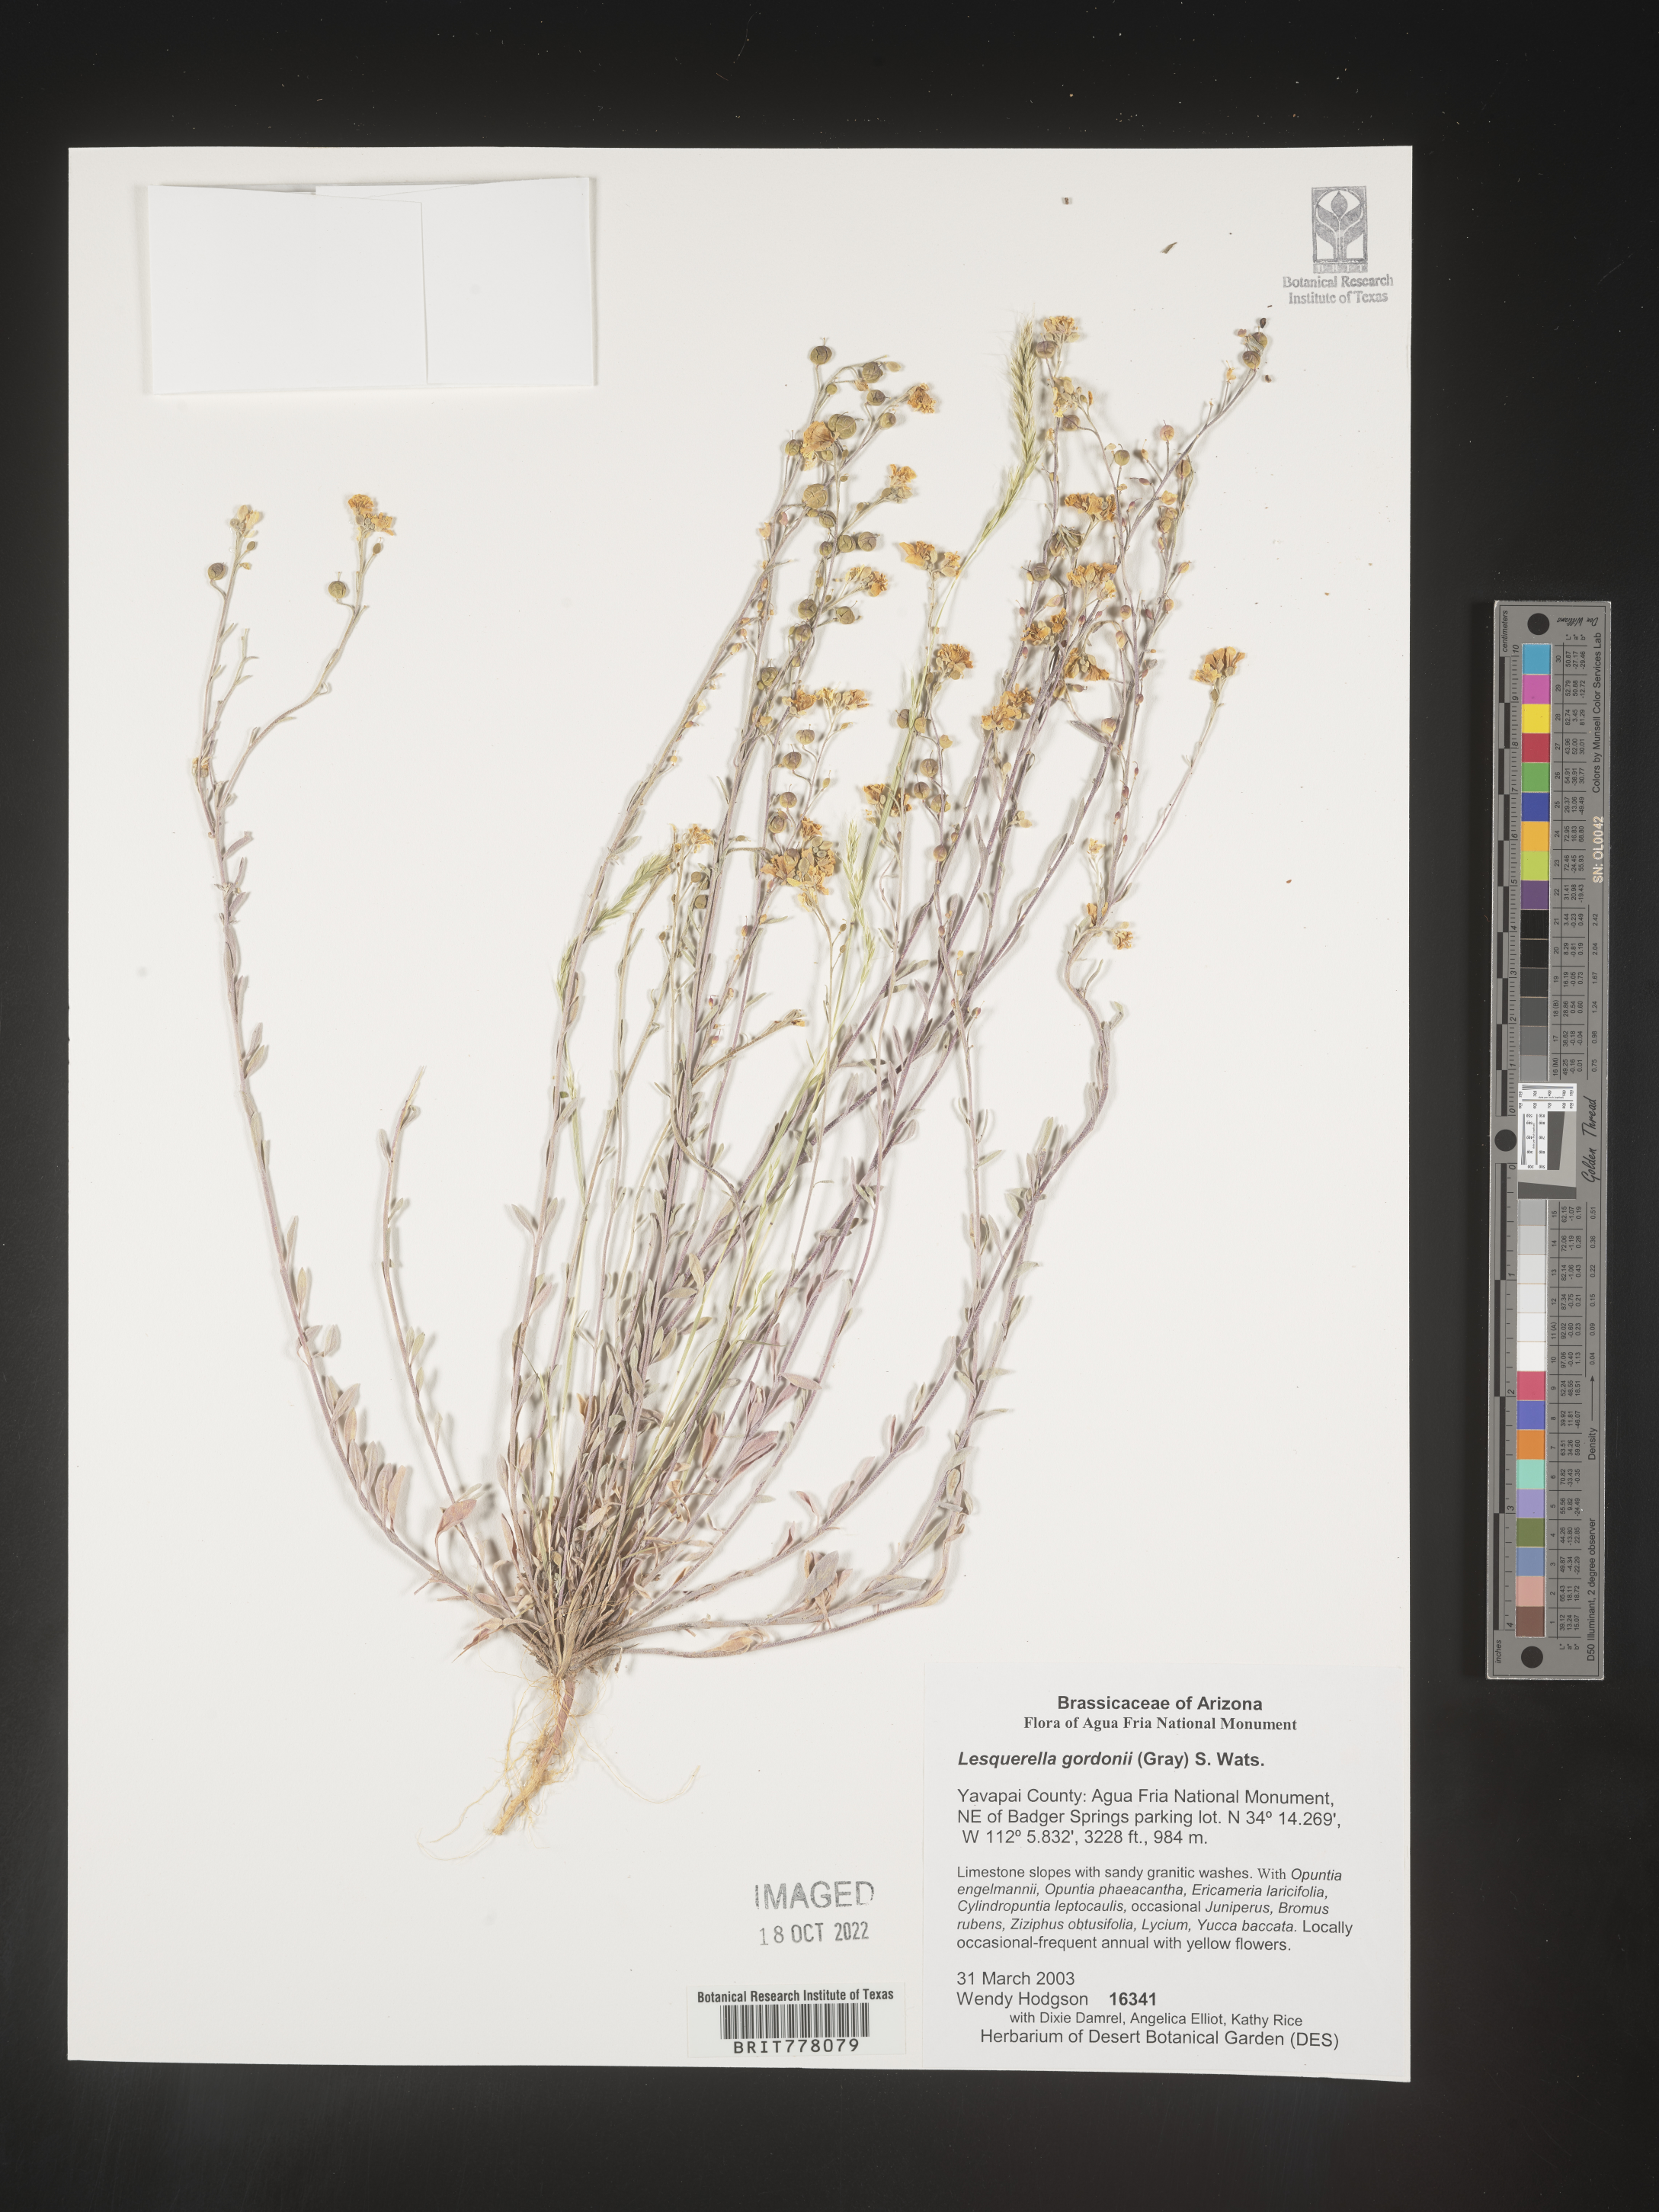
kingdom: Chromista
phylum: Cercozoa
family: Psammonobiotidae
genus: Lesquerella
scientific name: Lesquerella
